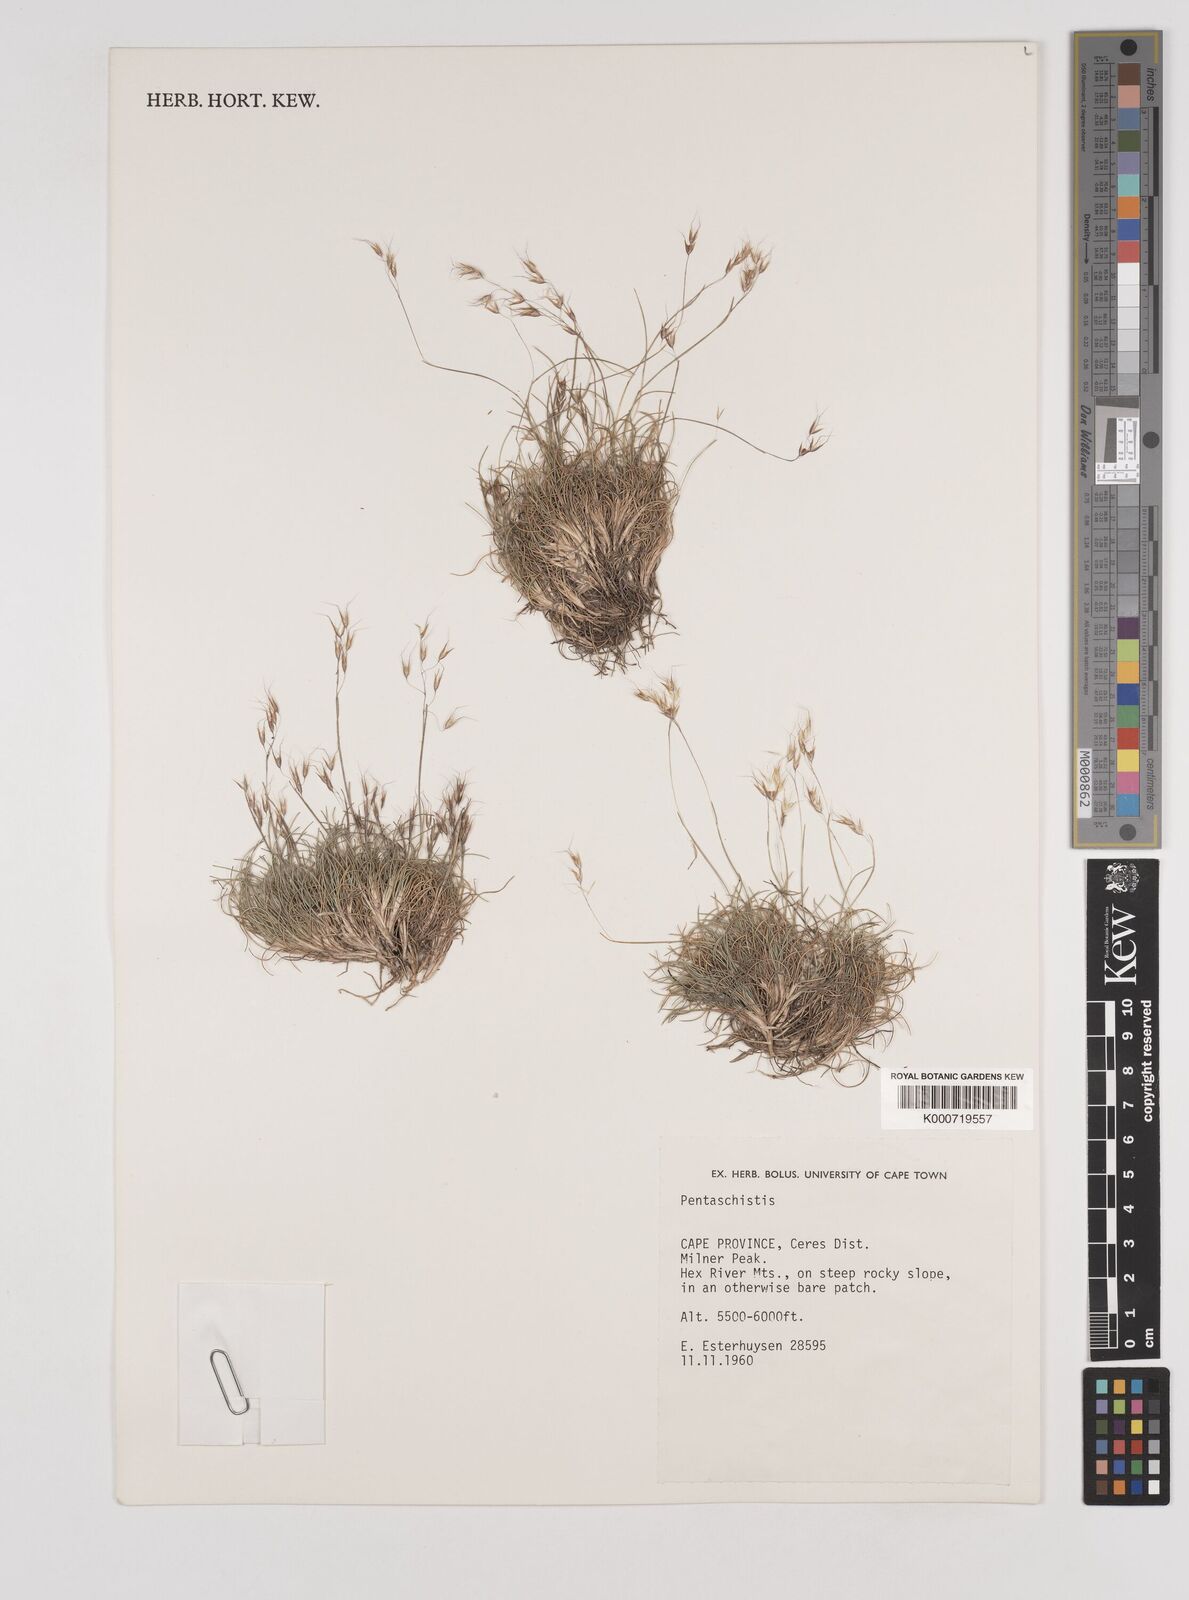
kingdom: Plantae
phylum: Tracheophyta
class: Liliopsida
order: Poales
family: Poaceae
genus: Pentameris
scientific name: Pentameris alticola
